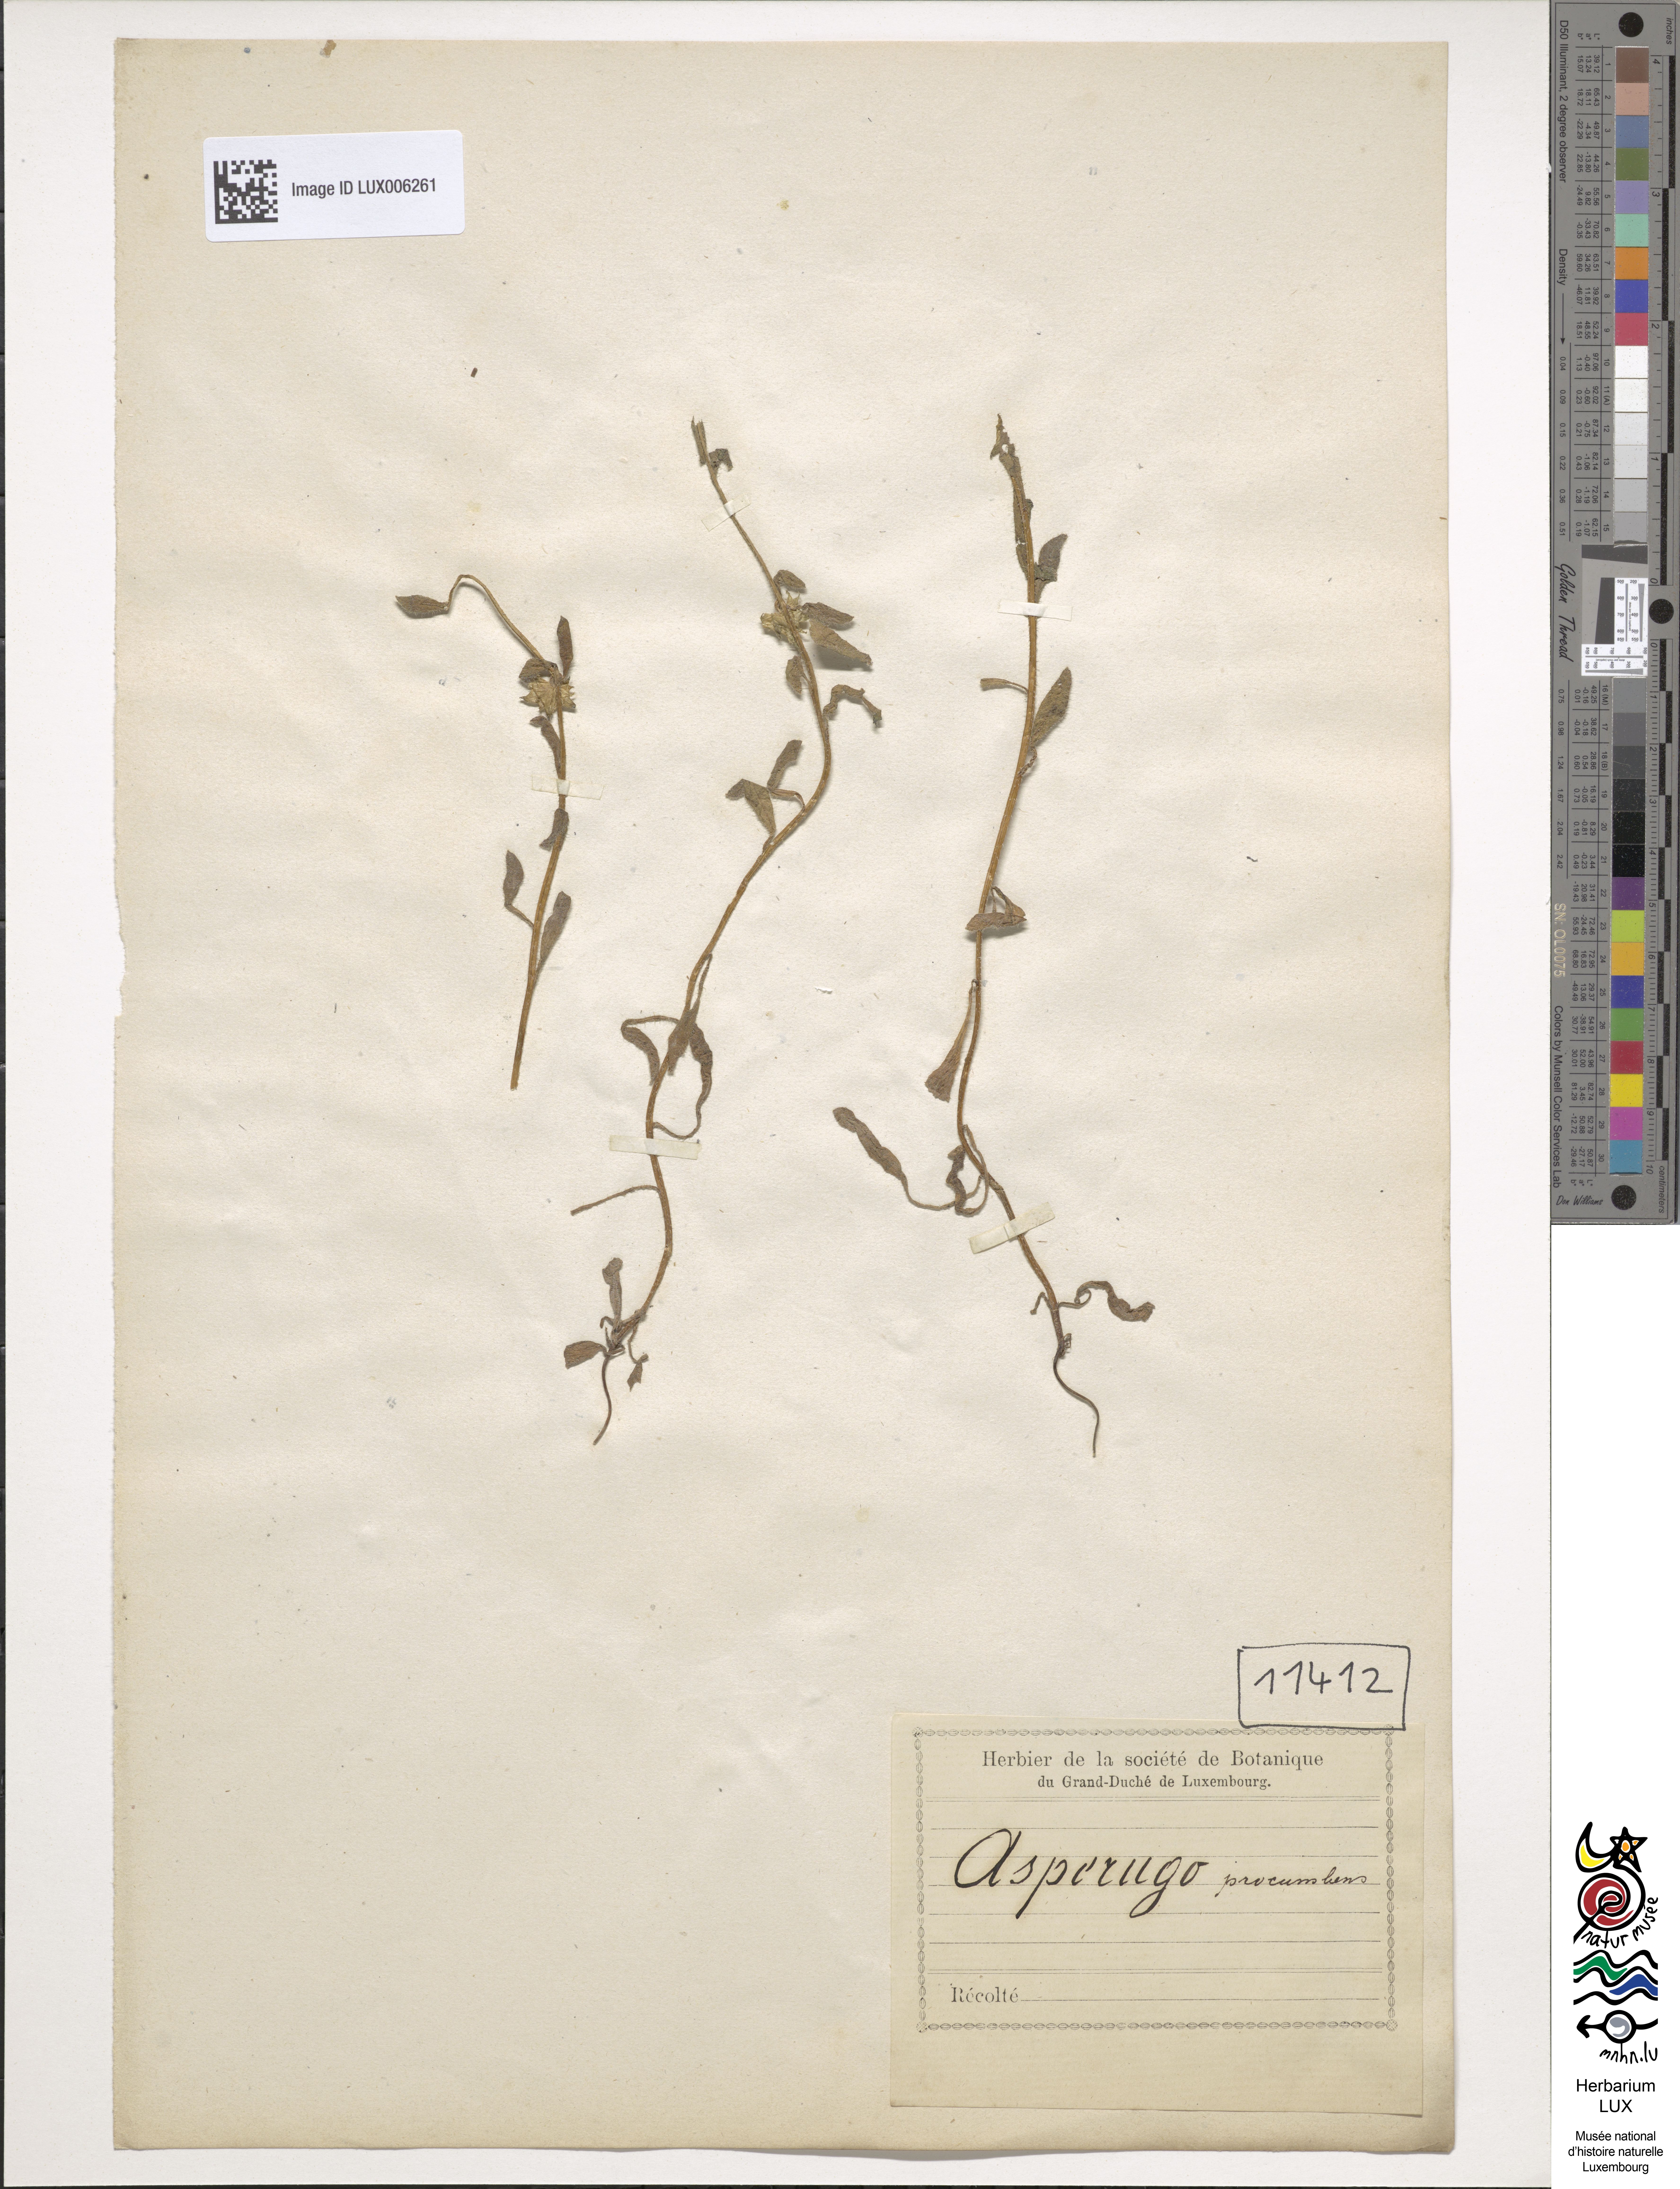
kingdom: Plantae
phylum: Tracheophyta
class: Magnoliopsida
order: Boraginales
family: Boraginaceae
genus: Asperugo
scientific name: Asperugo procumbens
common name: Madwort
